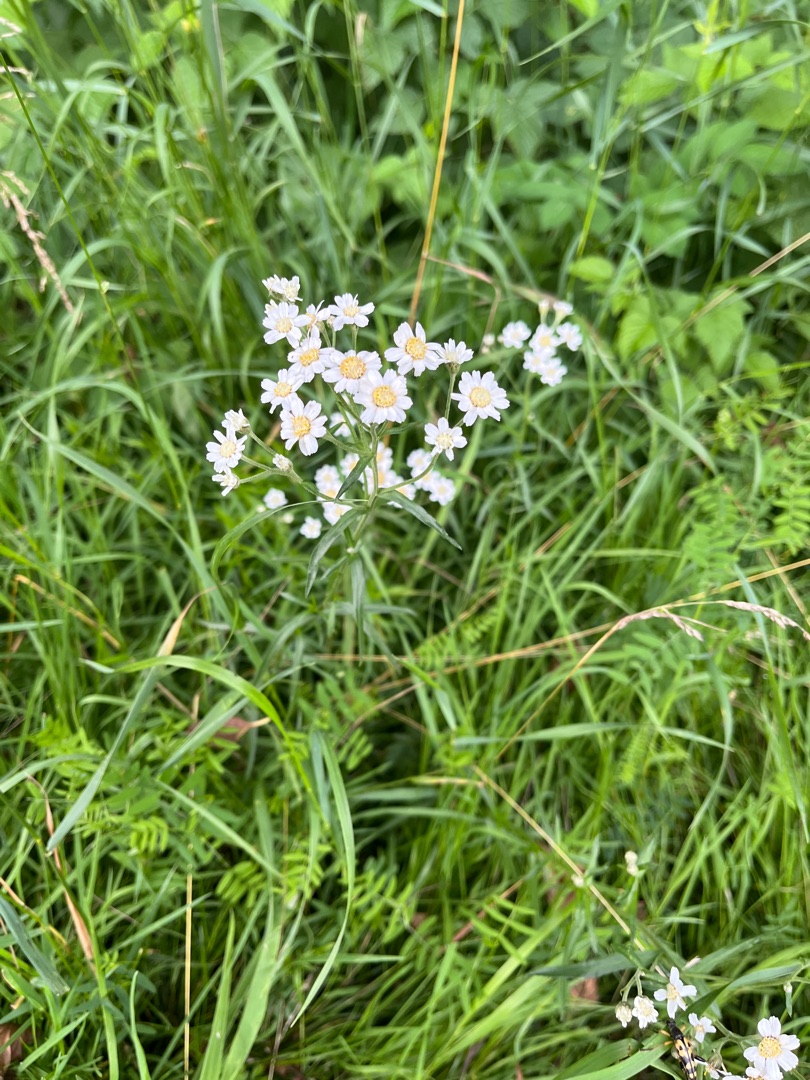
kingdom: Plantae
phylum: Tracheophyta
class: Magnoliopsida
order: Asterales
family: Asteraceae
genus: Achillea
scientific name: Achillea ptarmica
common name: Nyse-røllike
